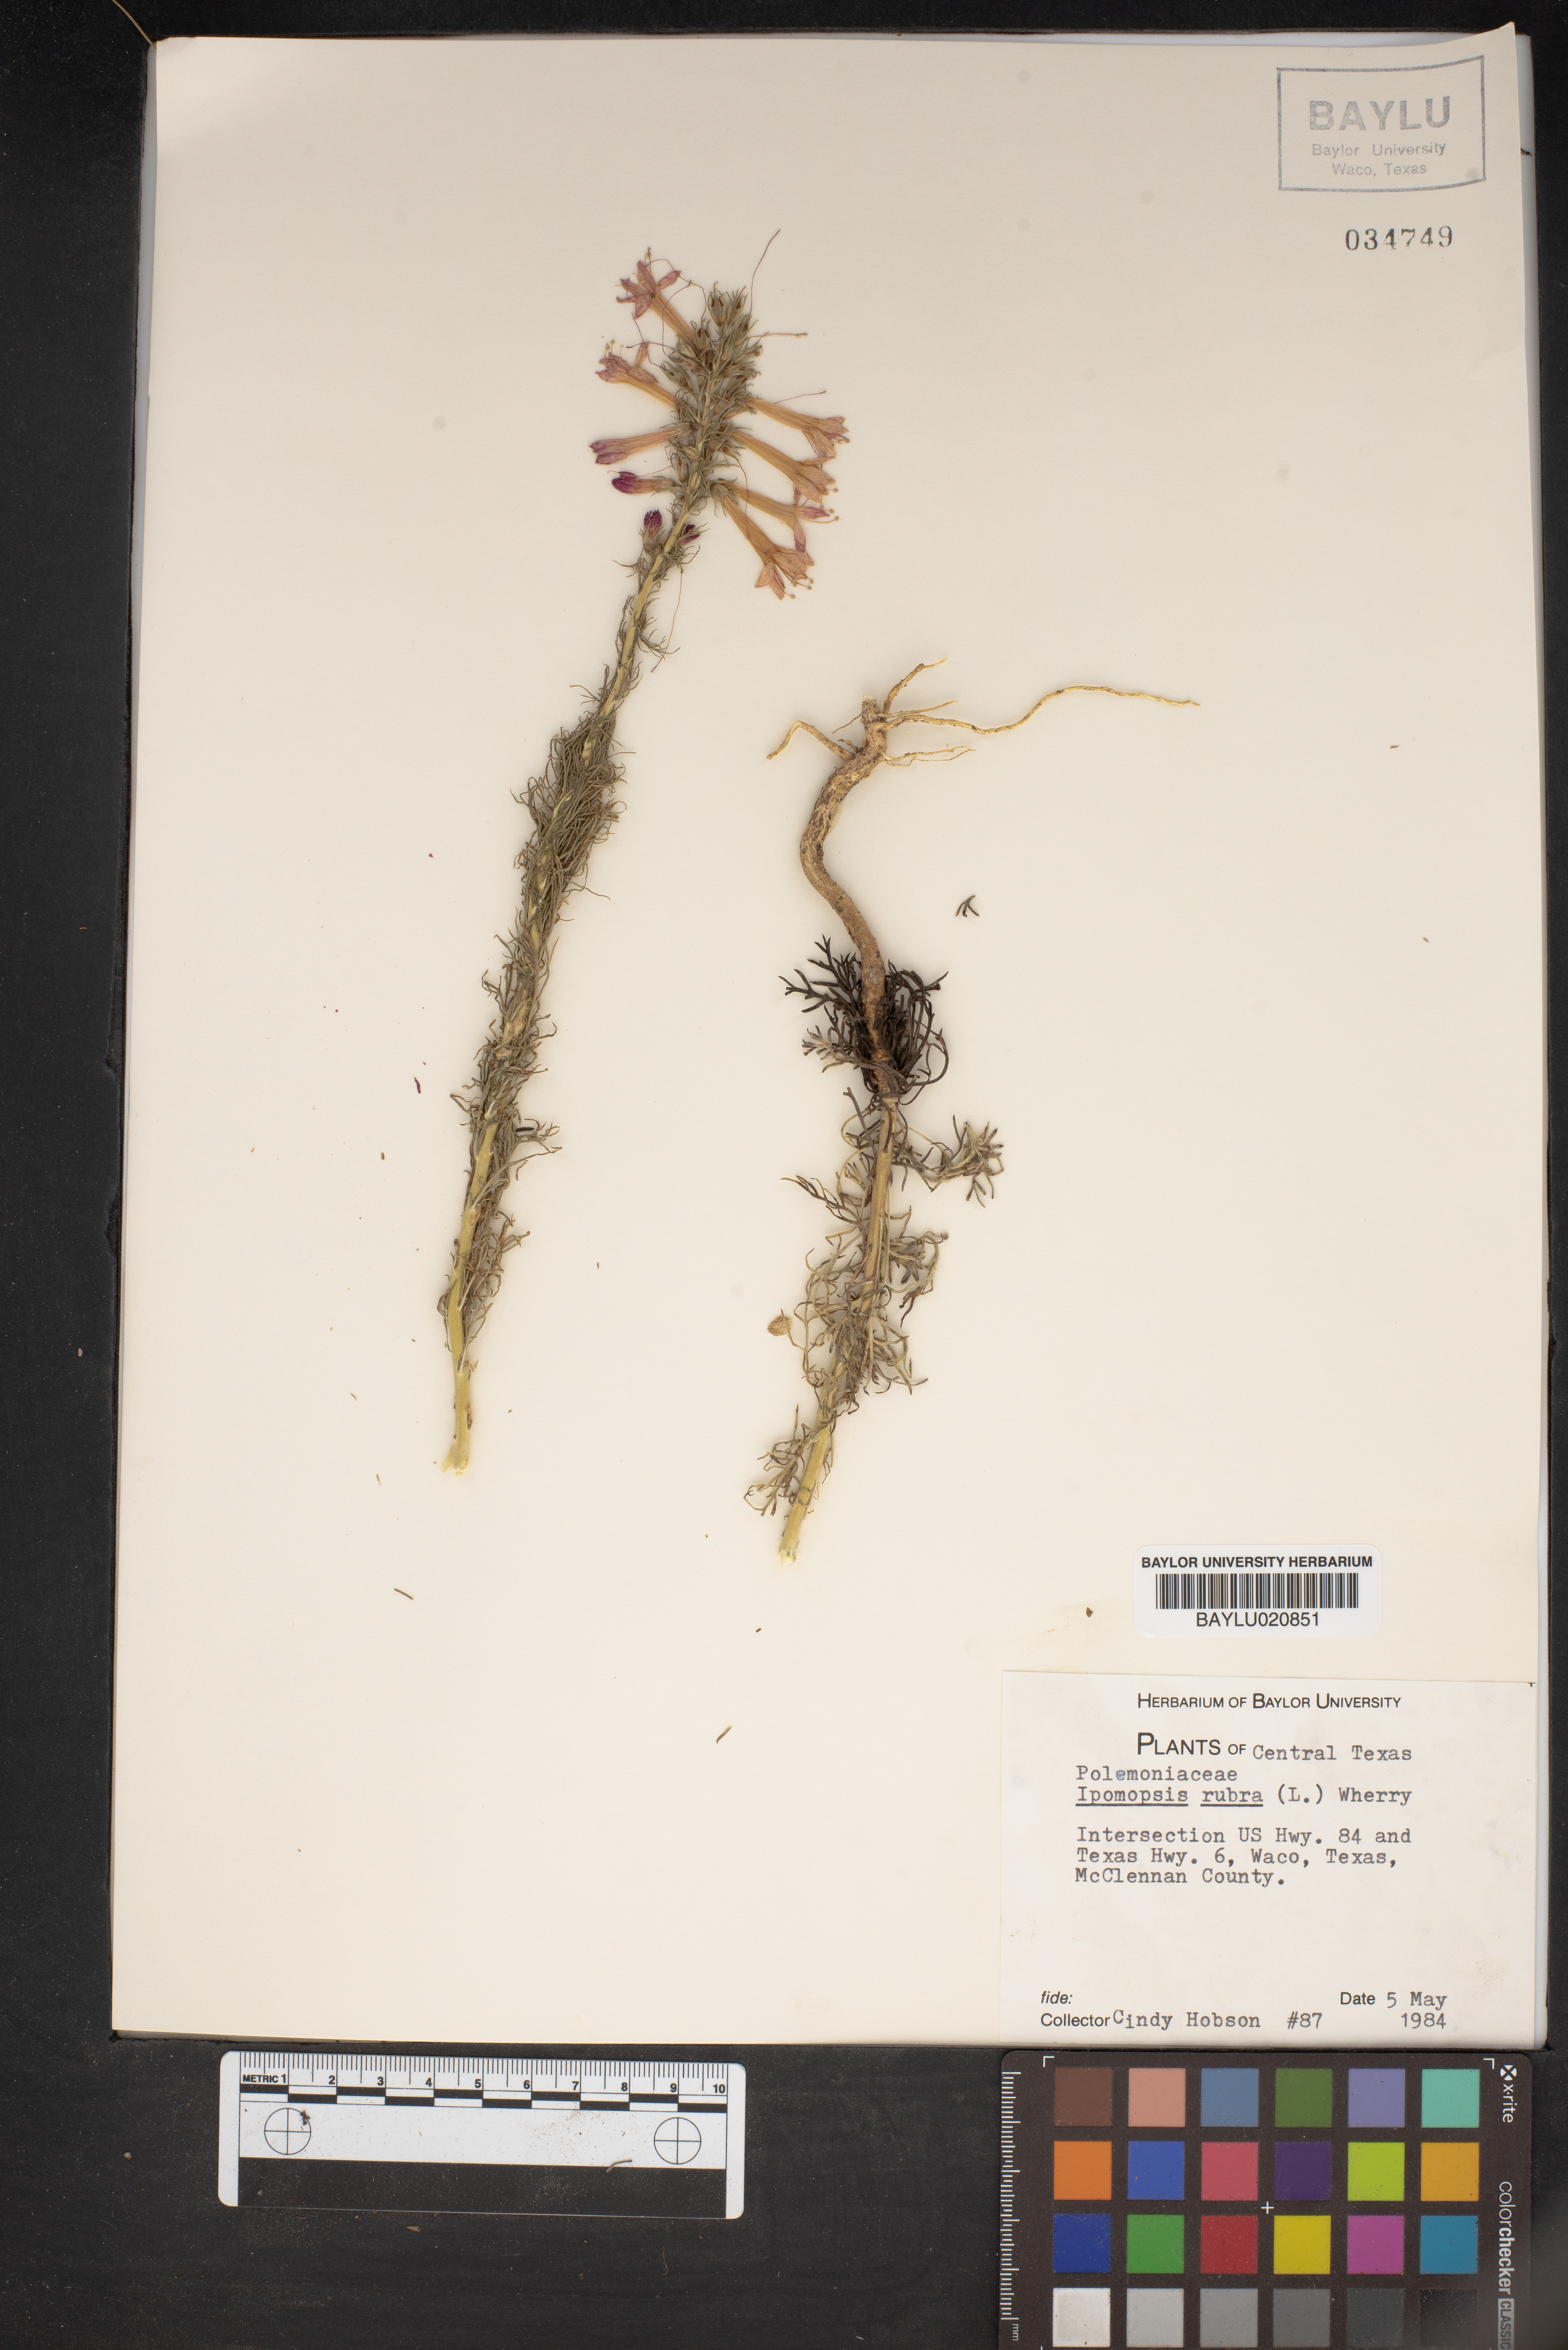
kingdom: Plantae
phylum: Tracheophyta
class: Magnoliopsida
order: Ericales
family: Polemoniaceae
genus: Ipomopsis
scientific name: Ipomopsis rubra
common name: Skyrocket
